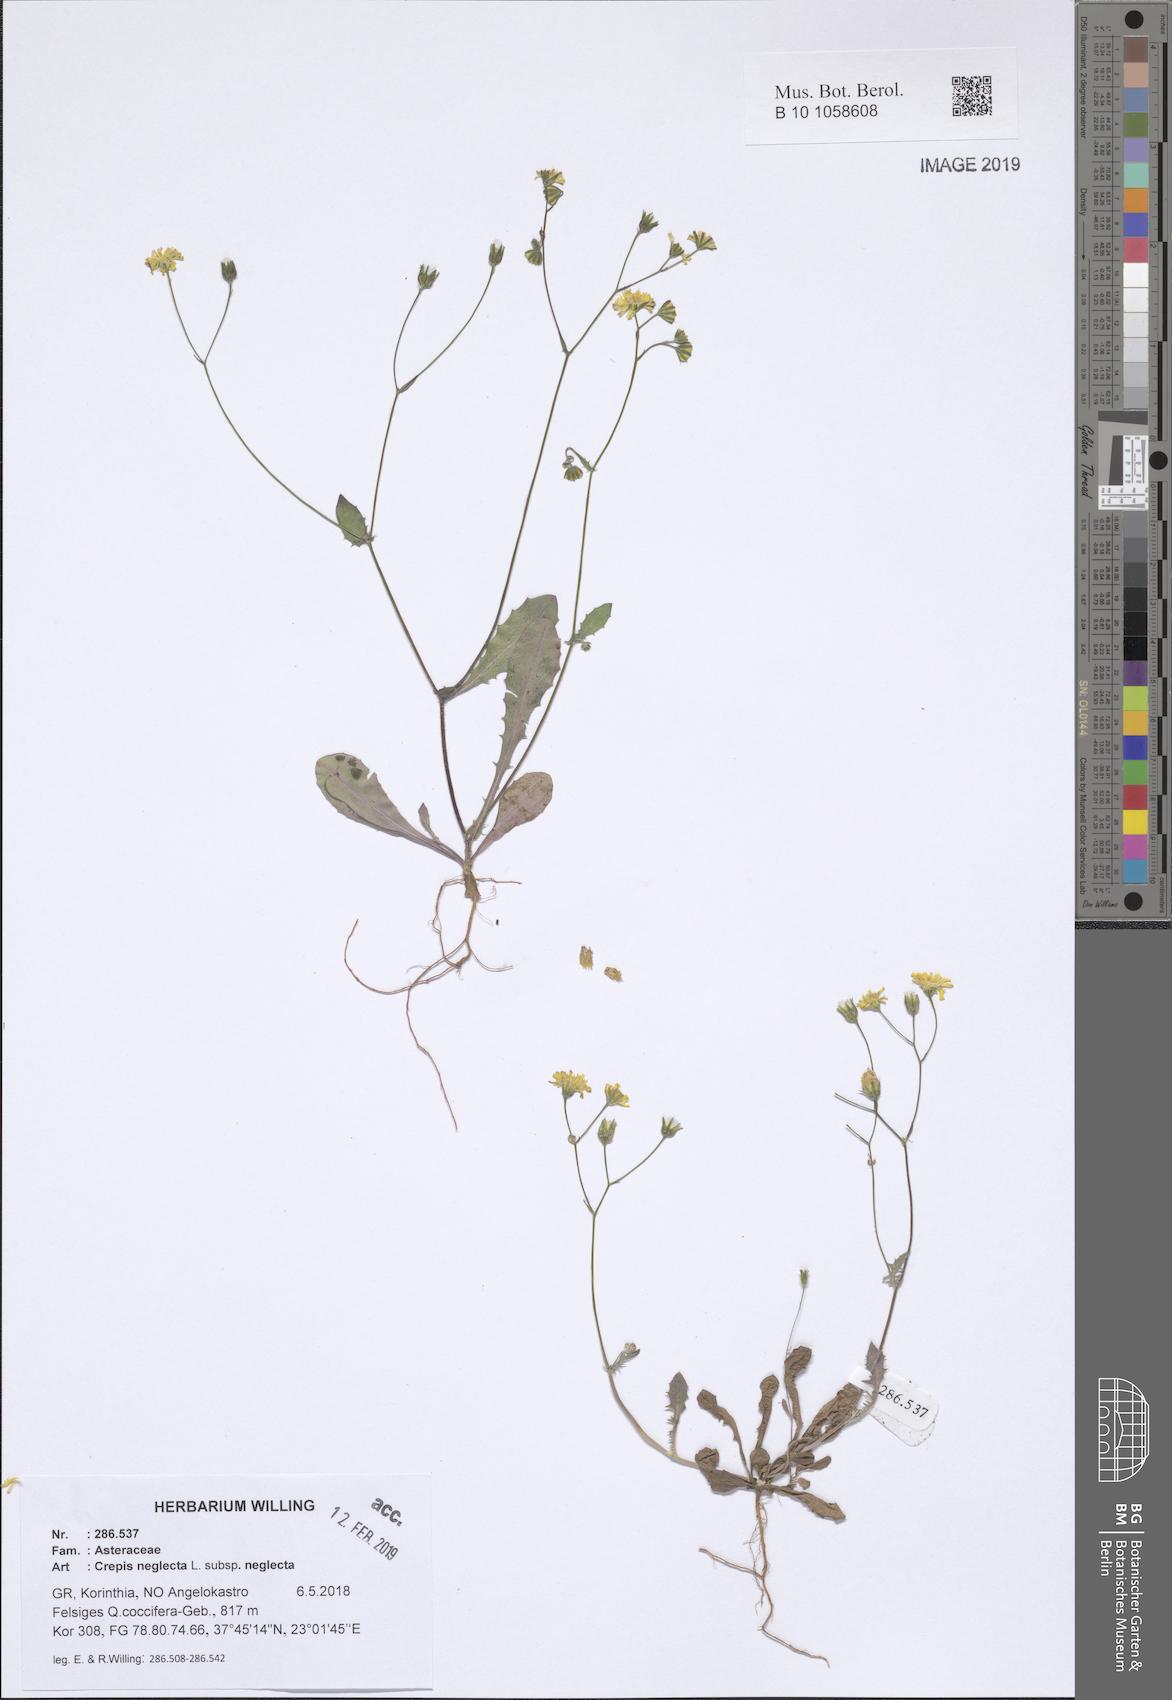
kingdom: Plantae
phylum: Tracheophyta
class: Magnoliopsida
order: Asterales
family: Asteraceae
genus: Crepis
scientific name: Crepis neglecta
